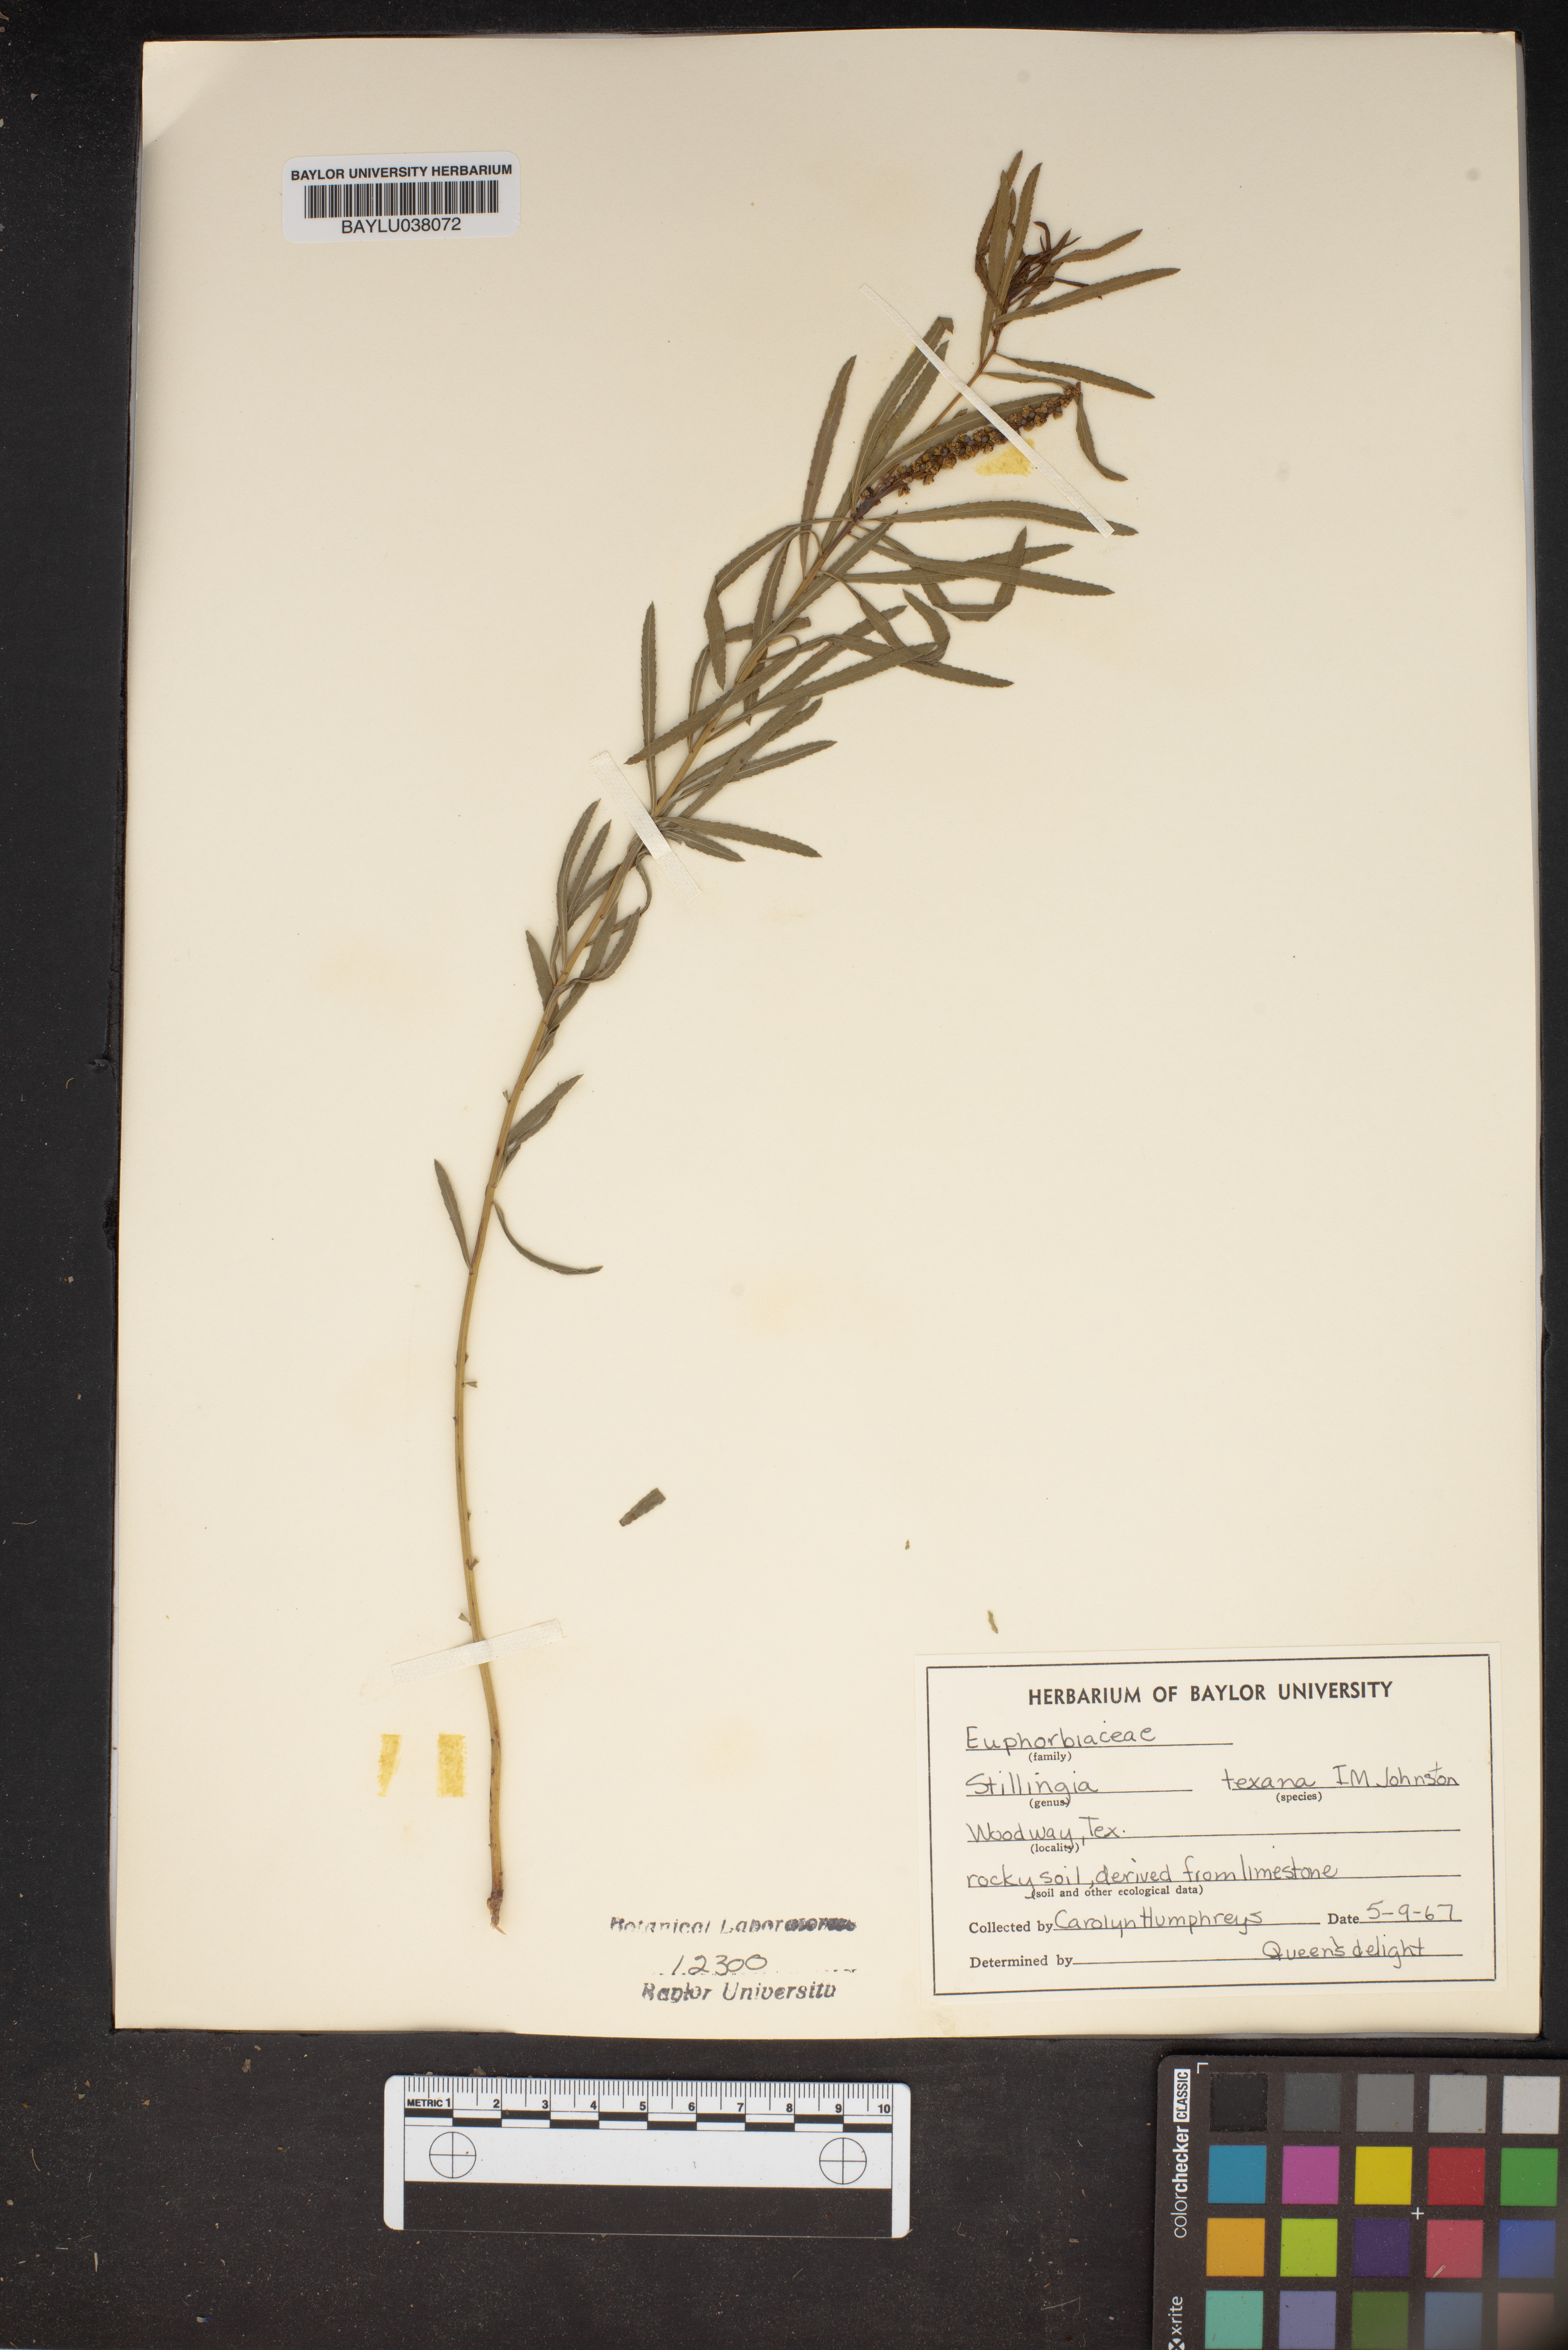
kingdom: Plantae
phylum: Tracheophyta
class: Magnoliopsida
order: Malpighiales
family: Euphorbiaceae
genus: Stillingia
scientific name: Stillingia texana
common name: Texas stillingia
